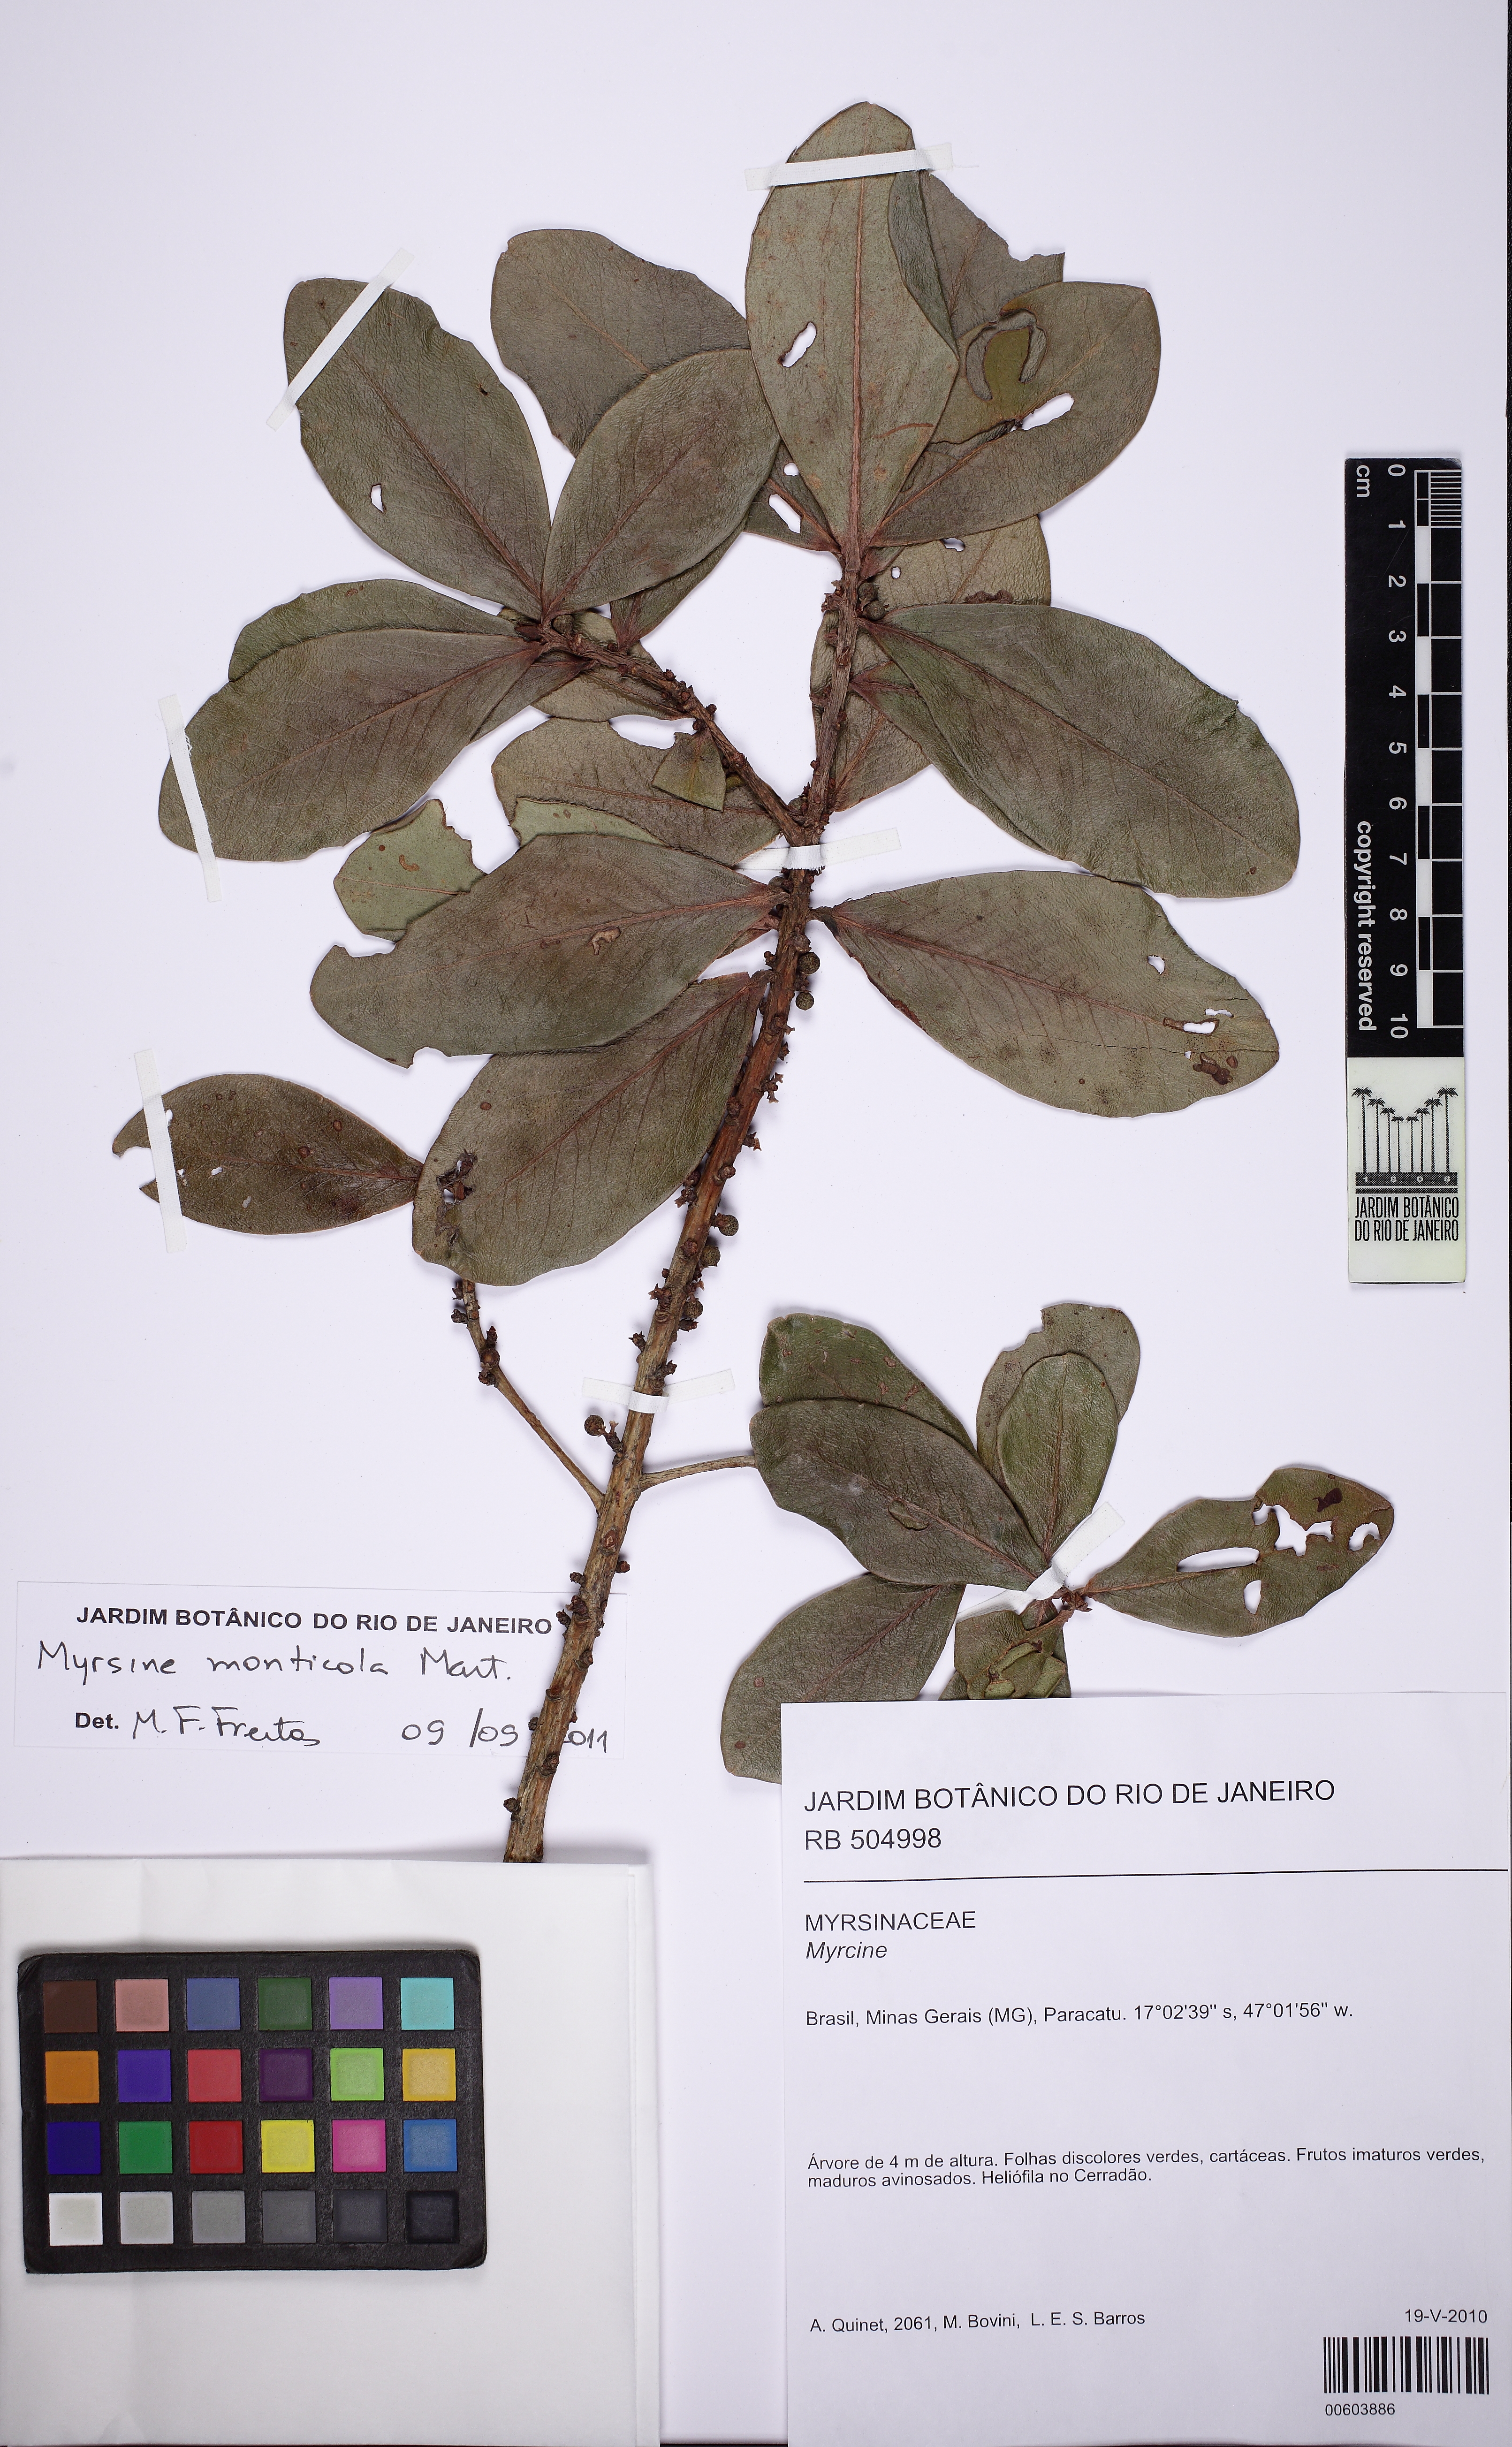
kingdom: Plantae
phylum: Tracheophyta
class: Magnoliopsida
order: Ericales
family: Primulaceae
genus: Myrsine
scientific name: Myrsine monticola
